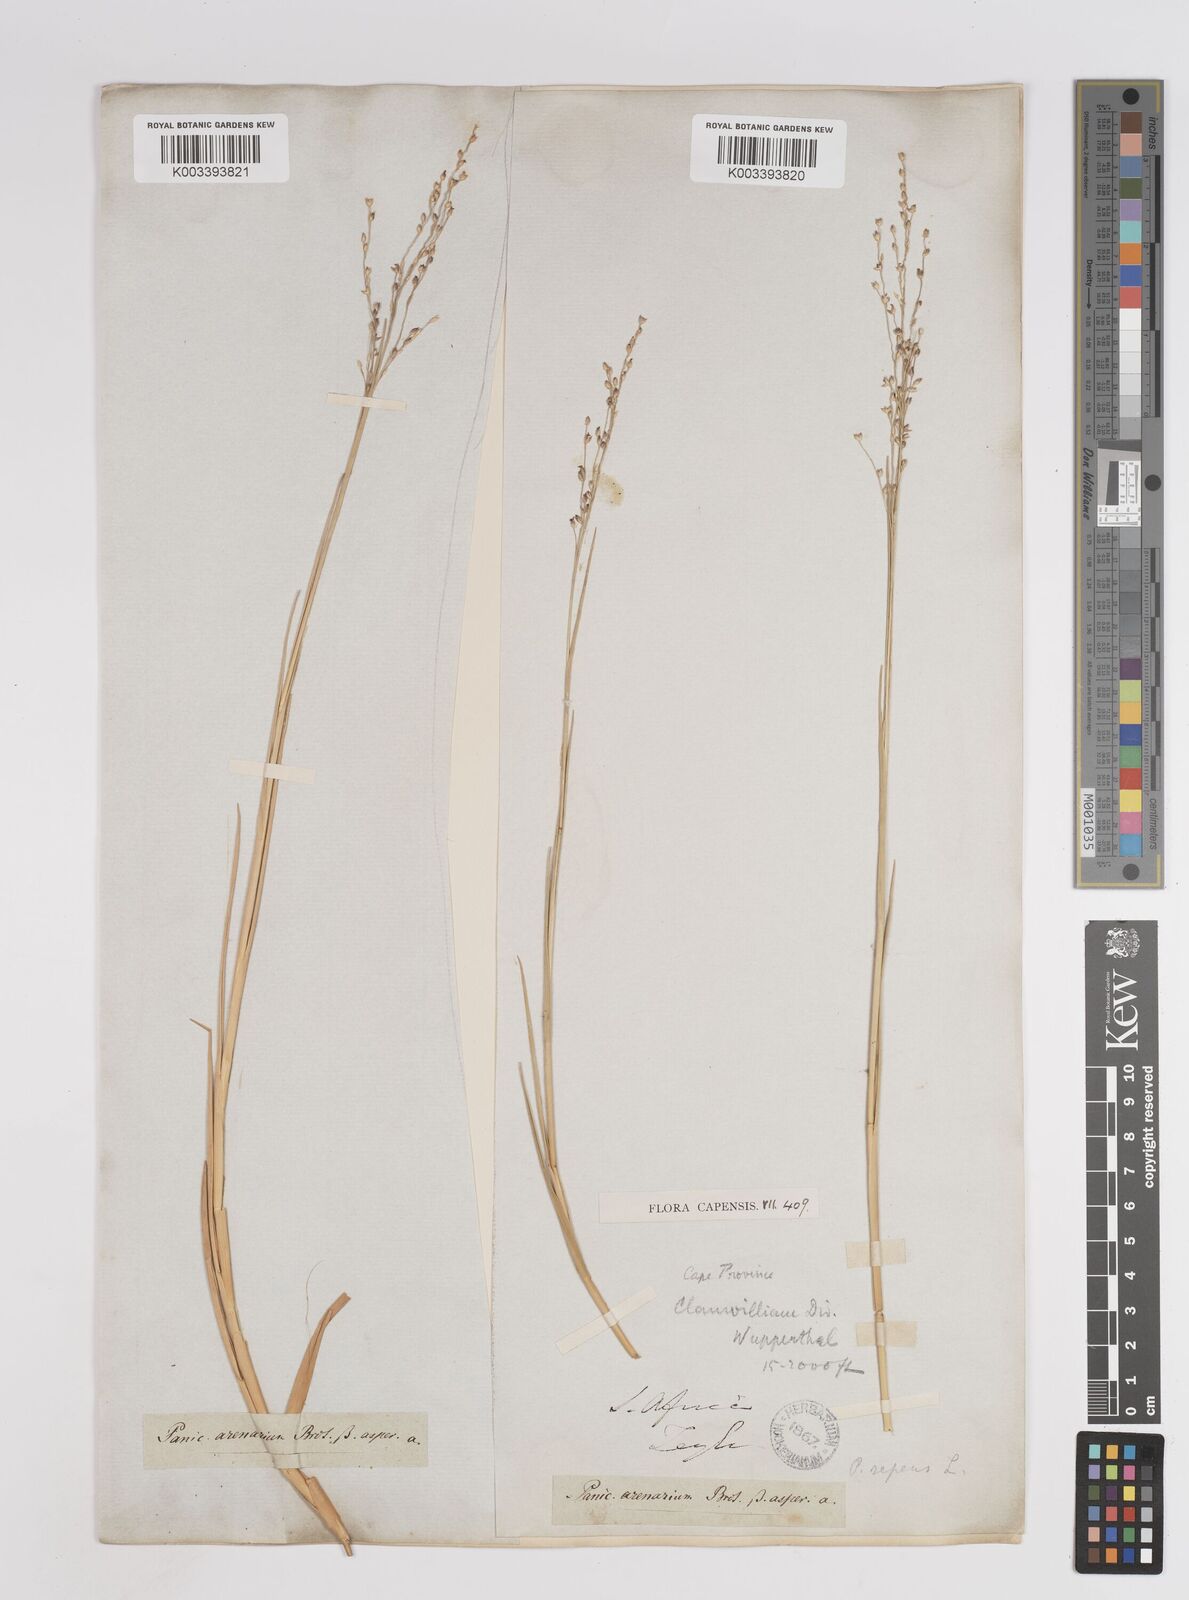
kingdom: Plantae
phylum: Tracheophyta
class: Liliopsida
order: Poales
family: Poaceae
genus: Panicum
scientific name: Panicum repens
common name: Torpedo grass
